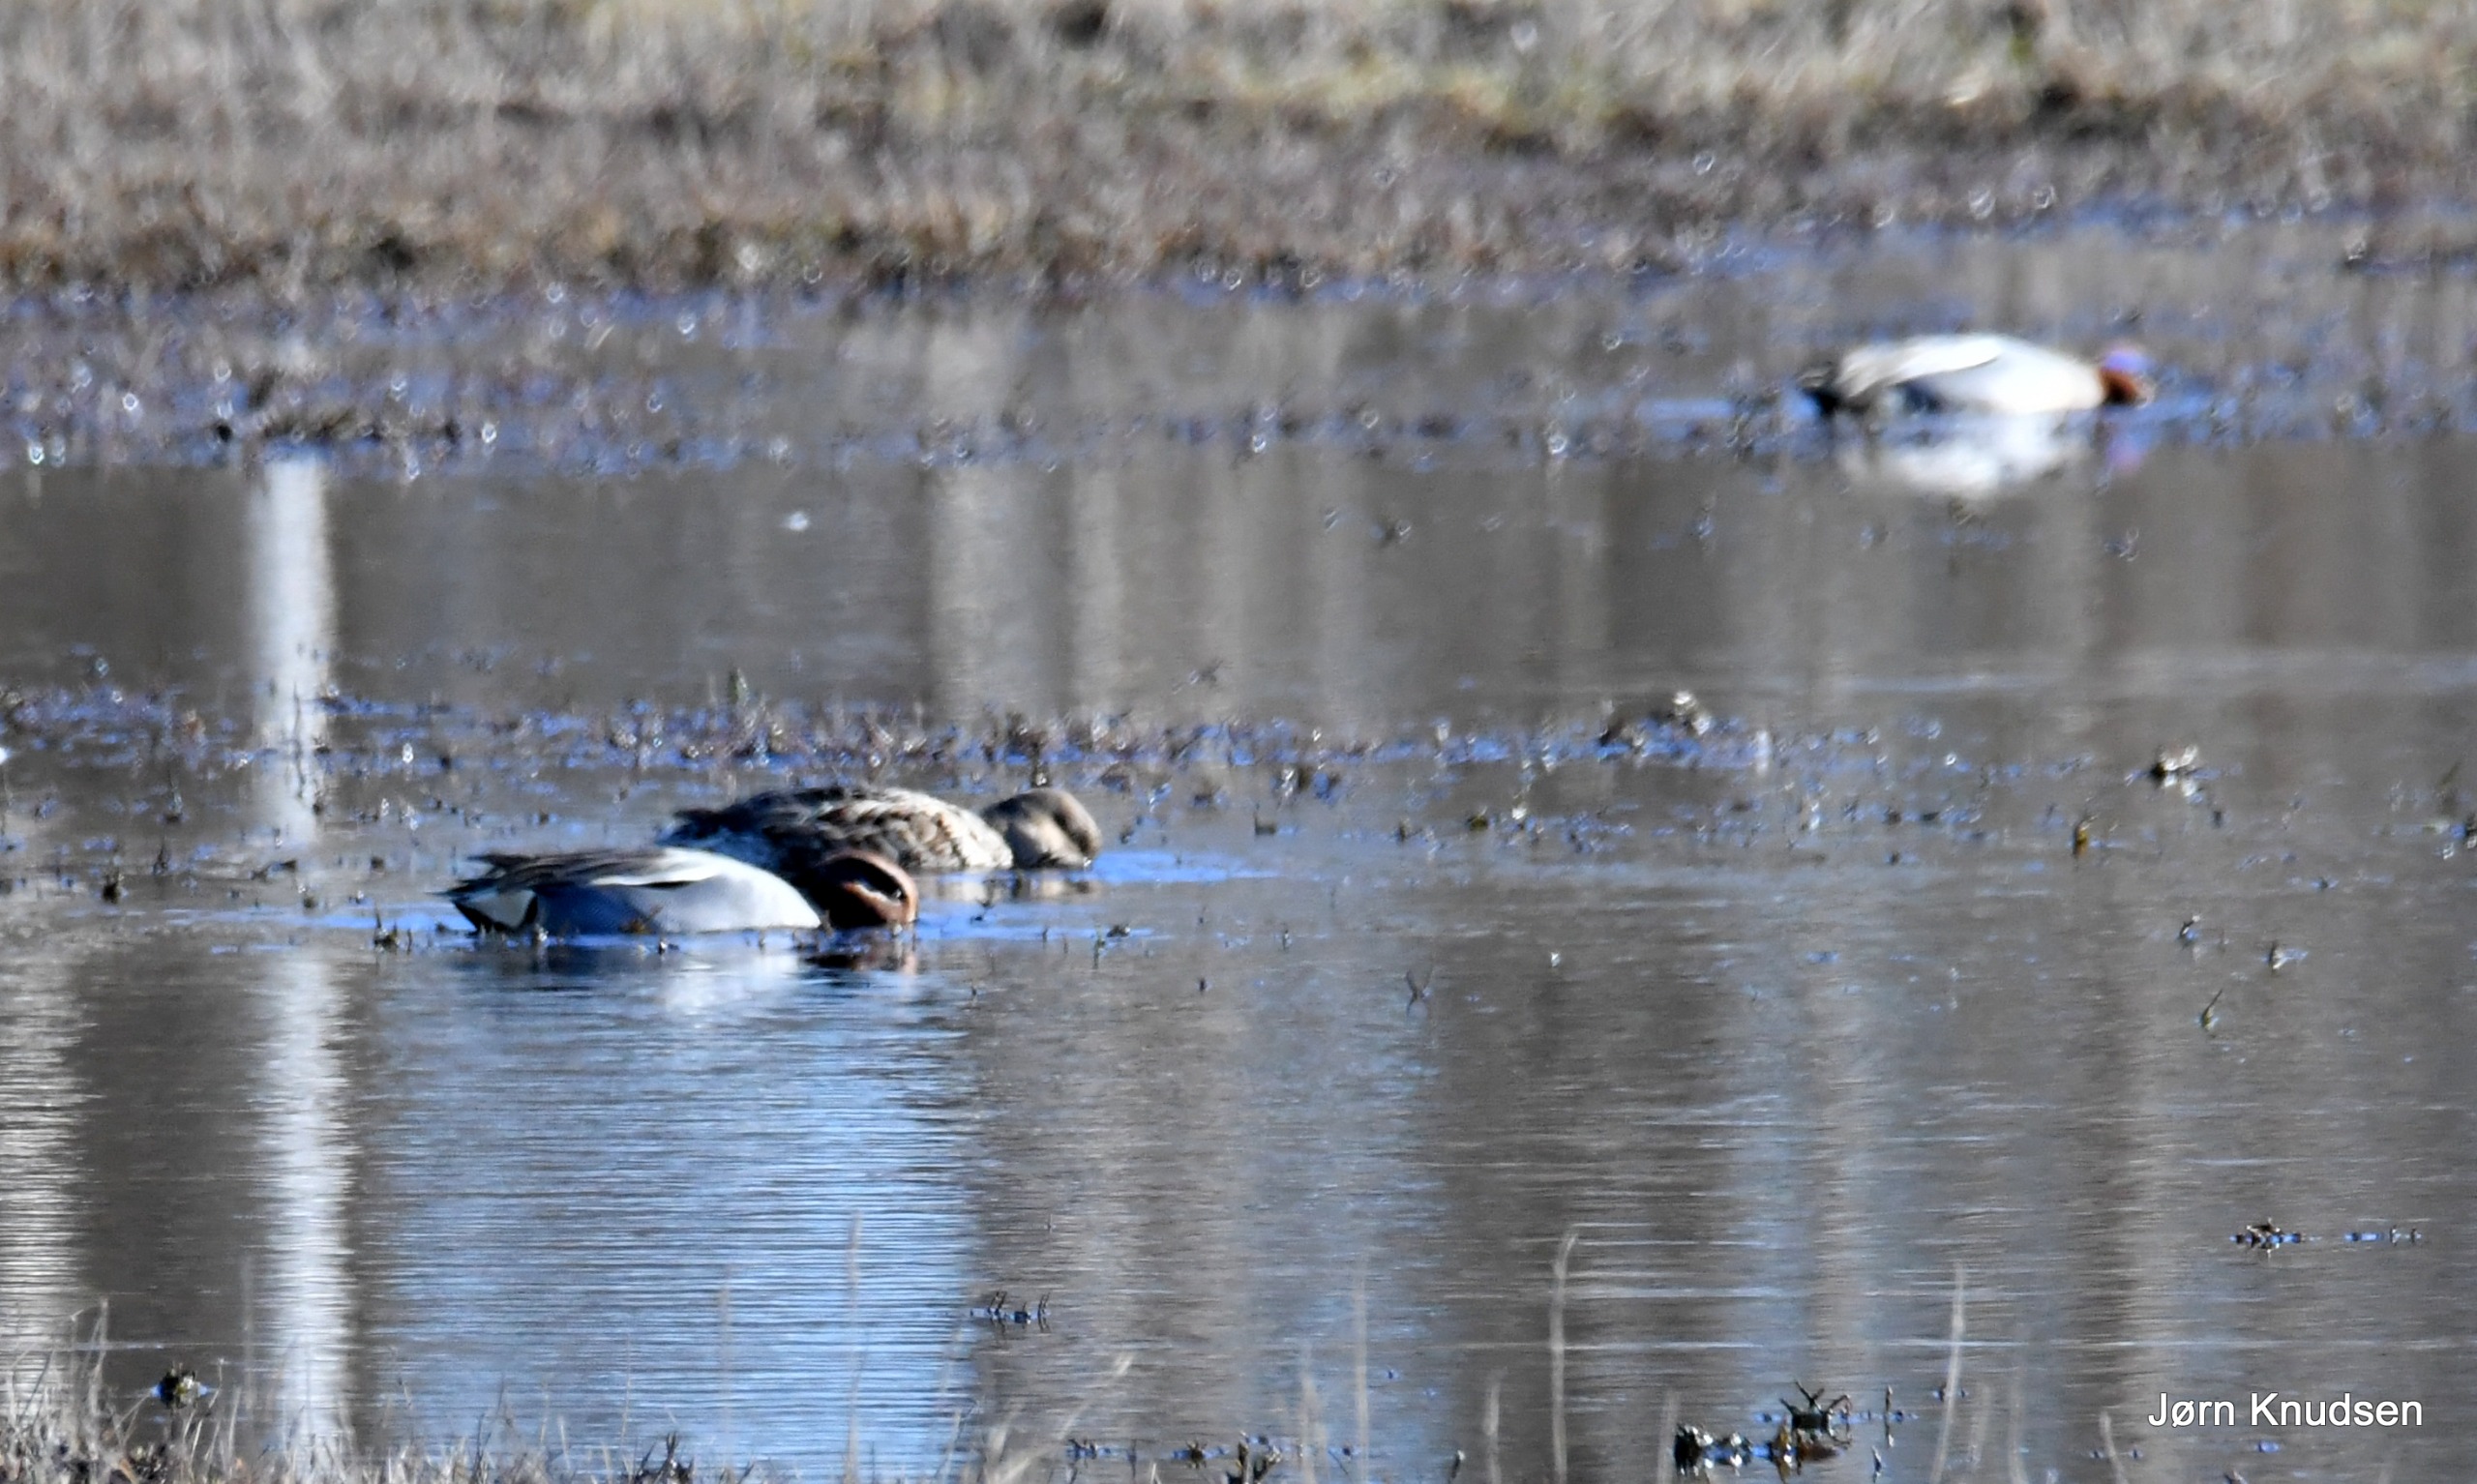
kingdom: Animalia
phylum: Chordata
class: Aves
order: Anseriformes
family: Anatidae
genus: Anas
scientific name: Anas crecca
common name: Krikand
